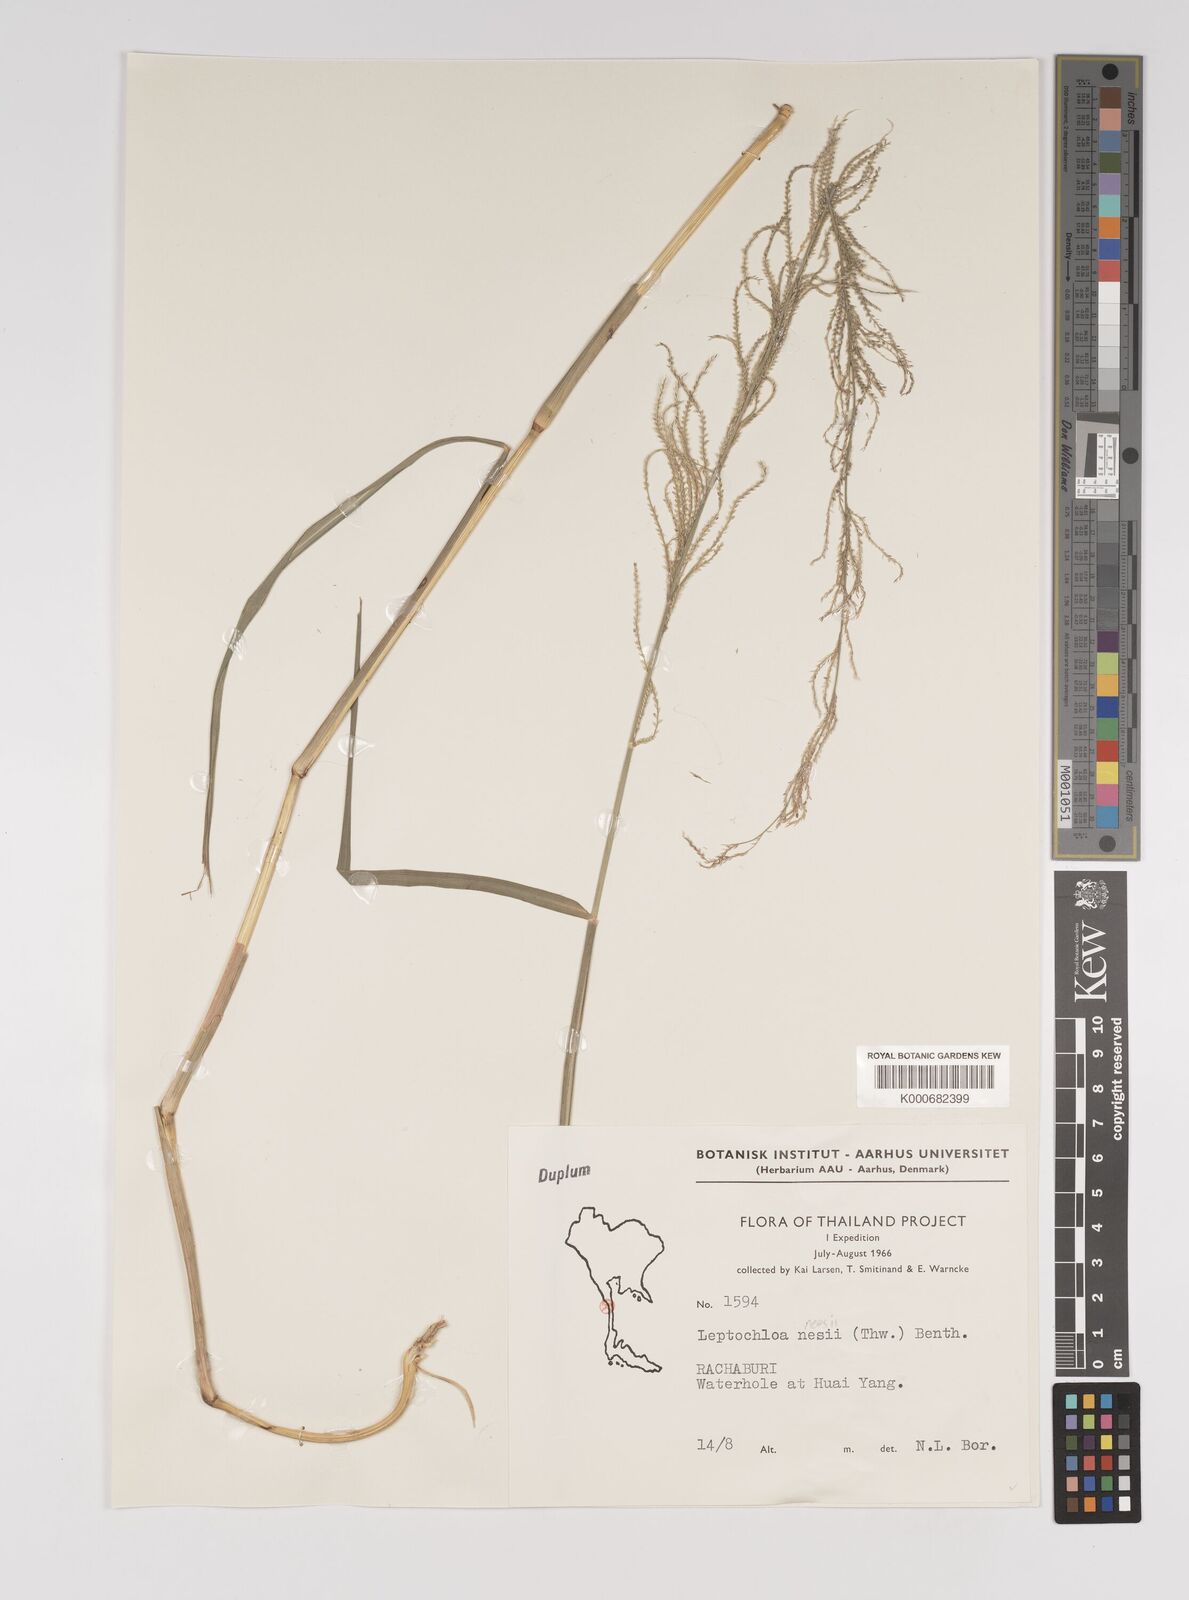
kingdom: Plantae
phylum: Tracheophyta
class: Liliopsida
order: Poales
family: Poaceae
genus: Dinebra
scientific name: Dinebra polystachyos
